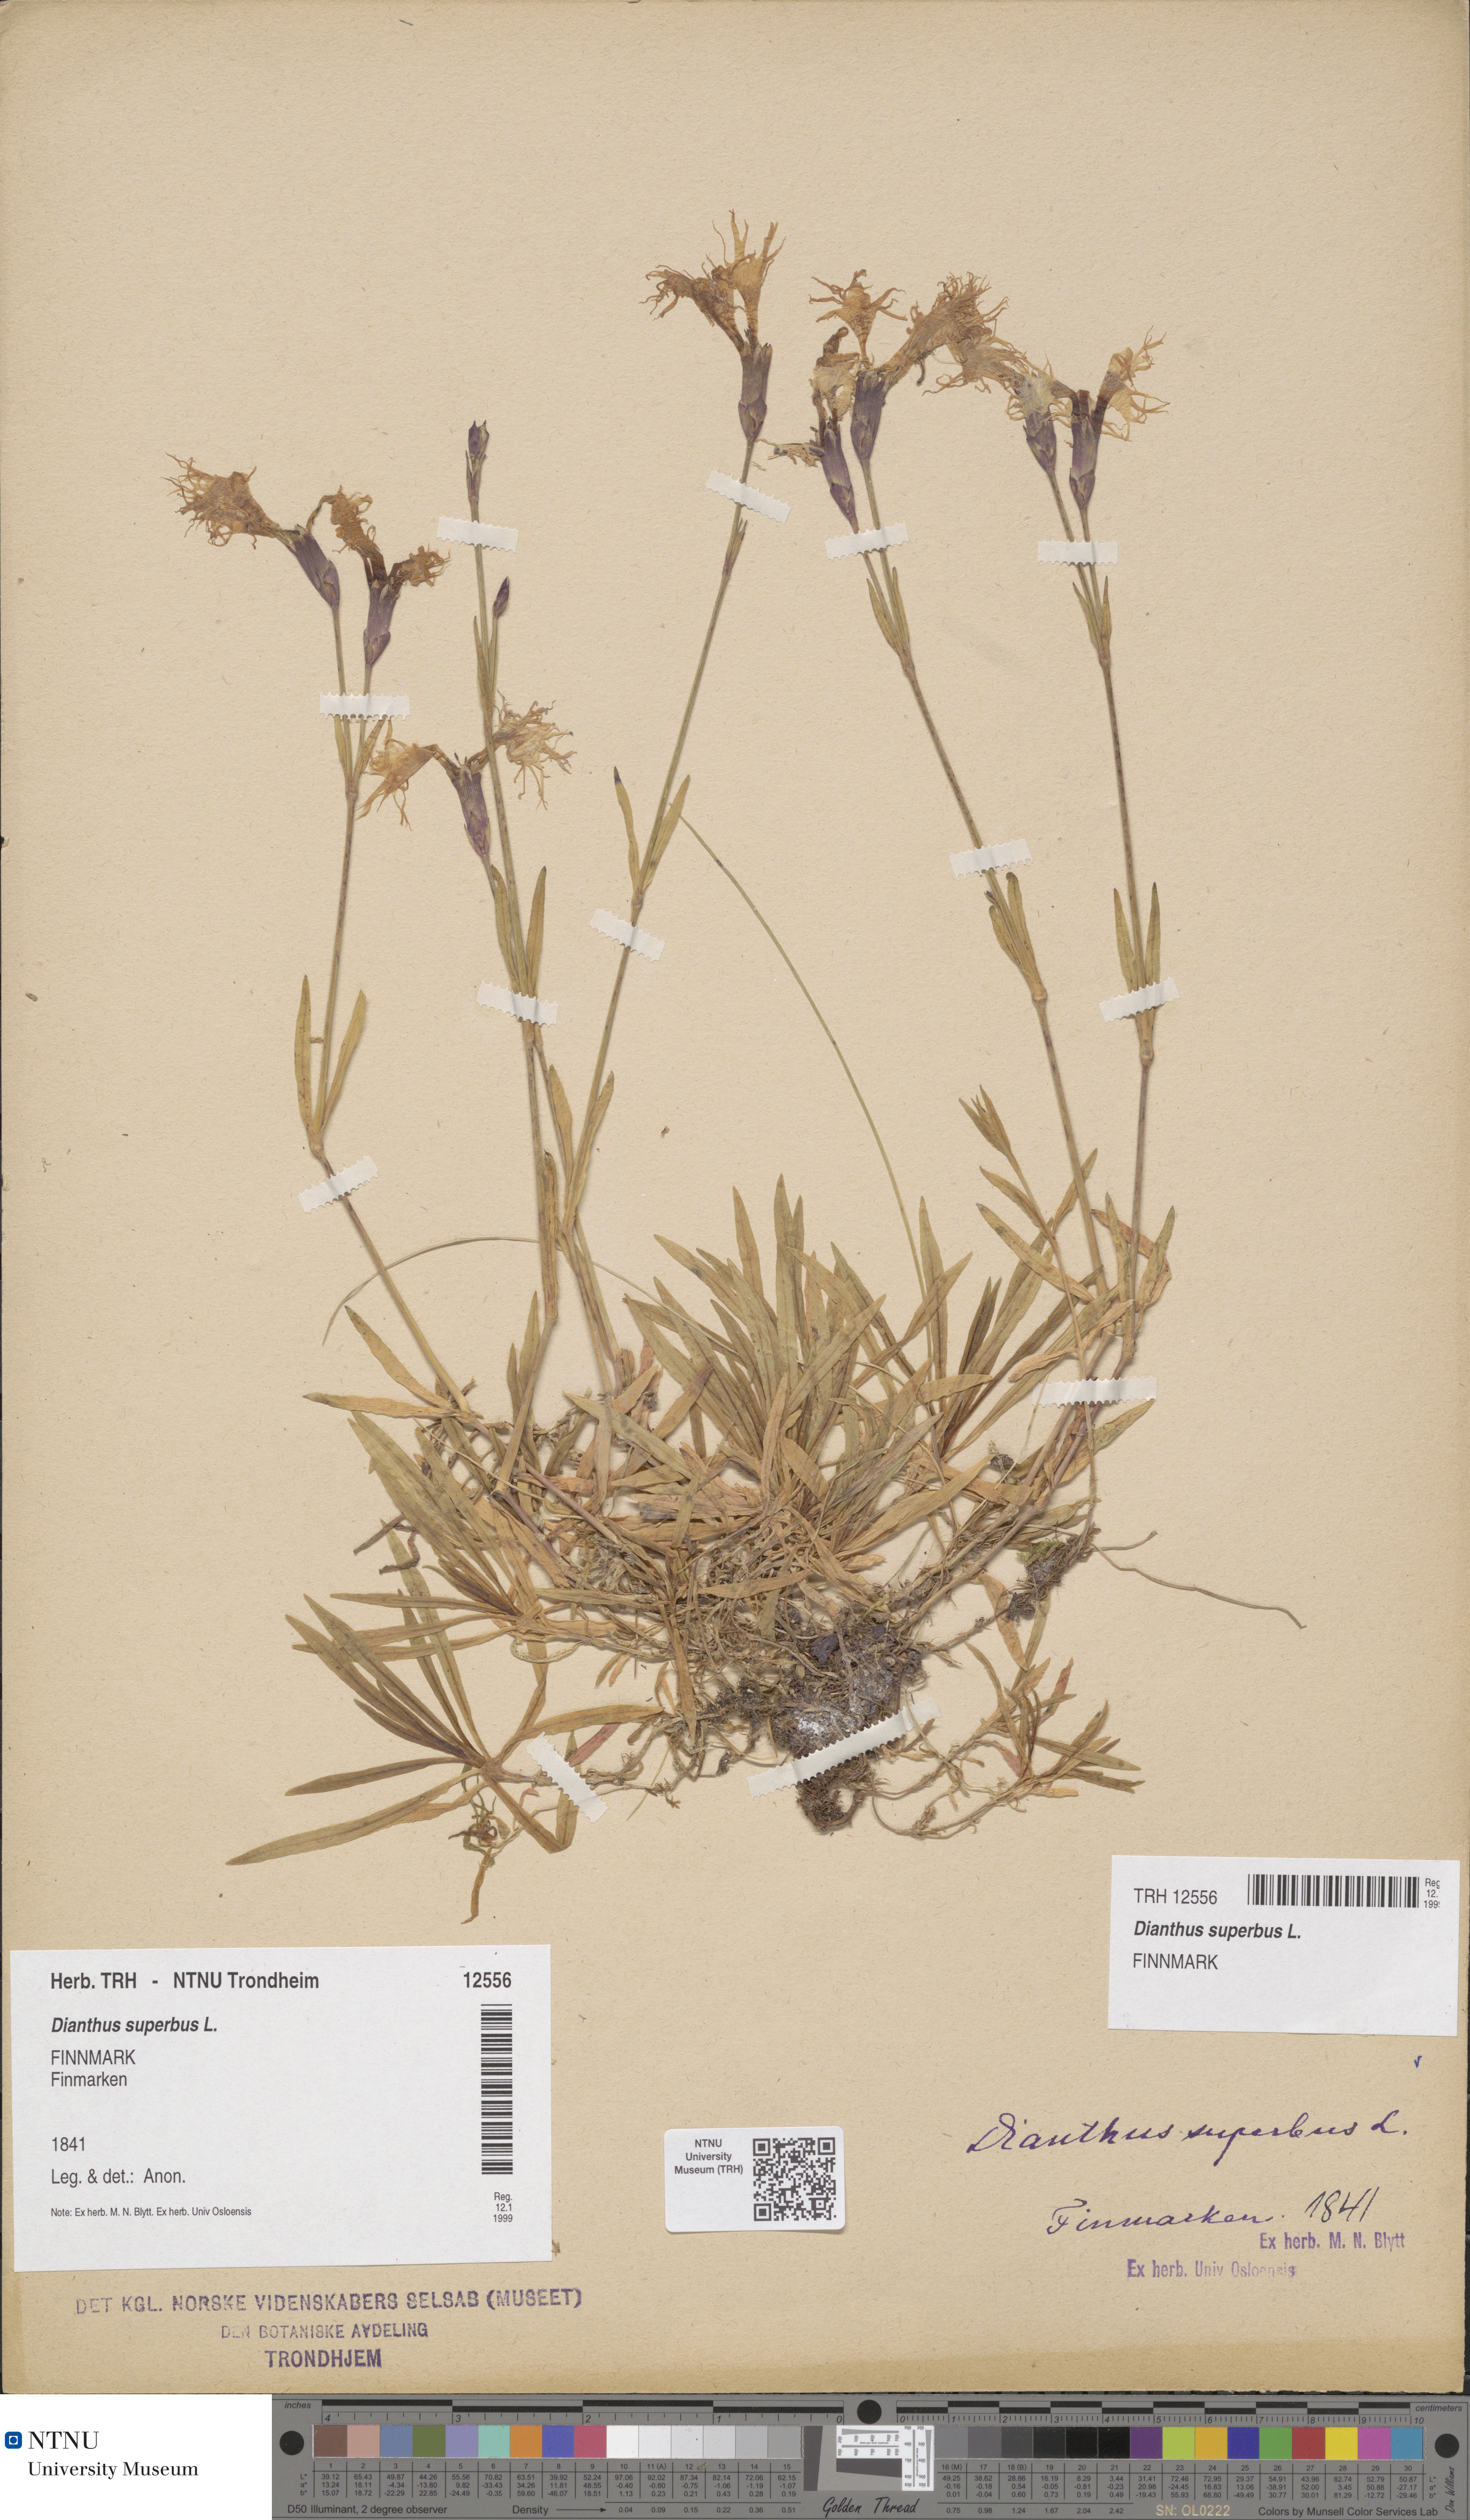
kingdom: Plantae
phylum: Tracheophyta
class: Magnoliopsida
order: Caryophyllales
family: Caryophyllaceae
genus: Dianthus
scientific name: Dianthus superbus
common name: Fringed pink
